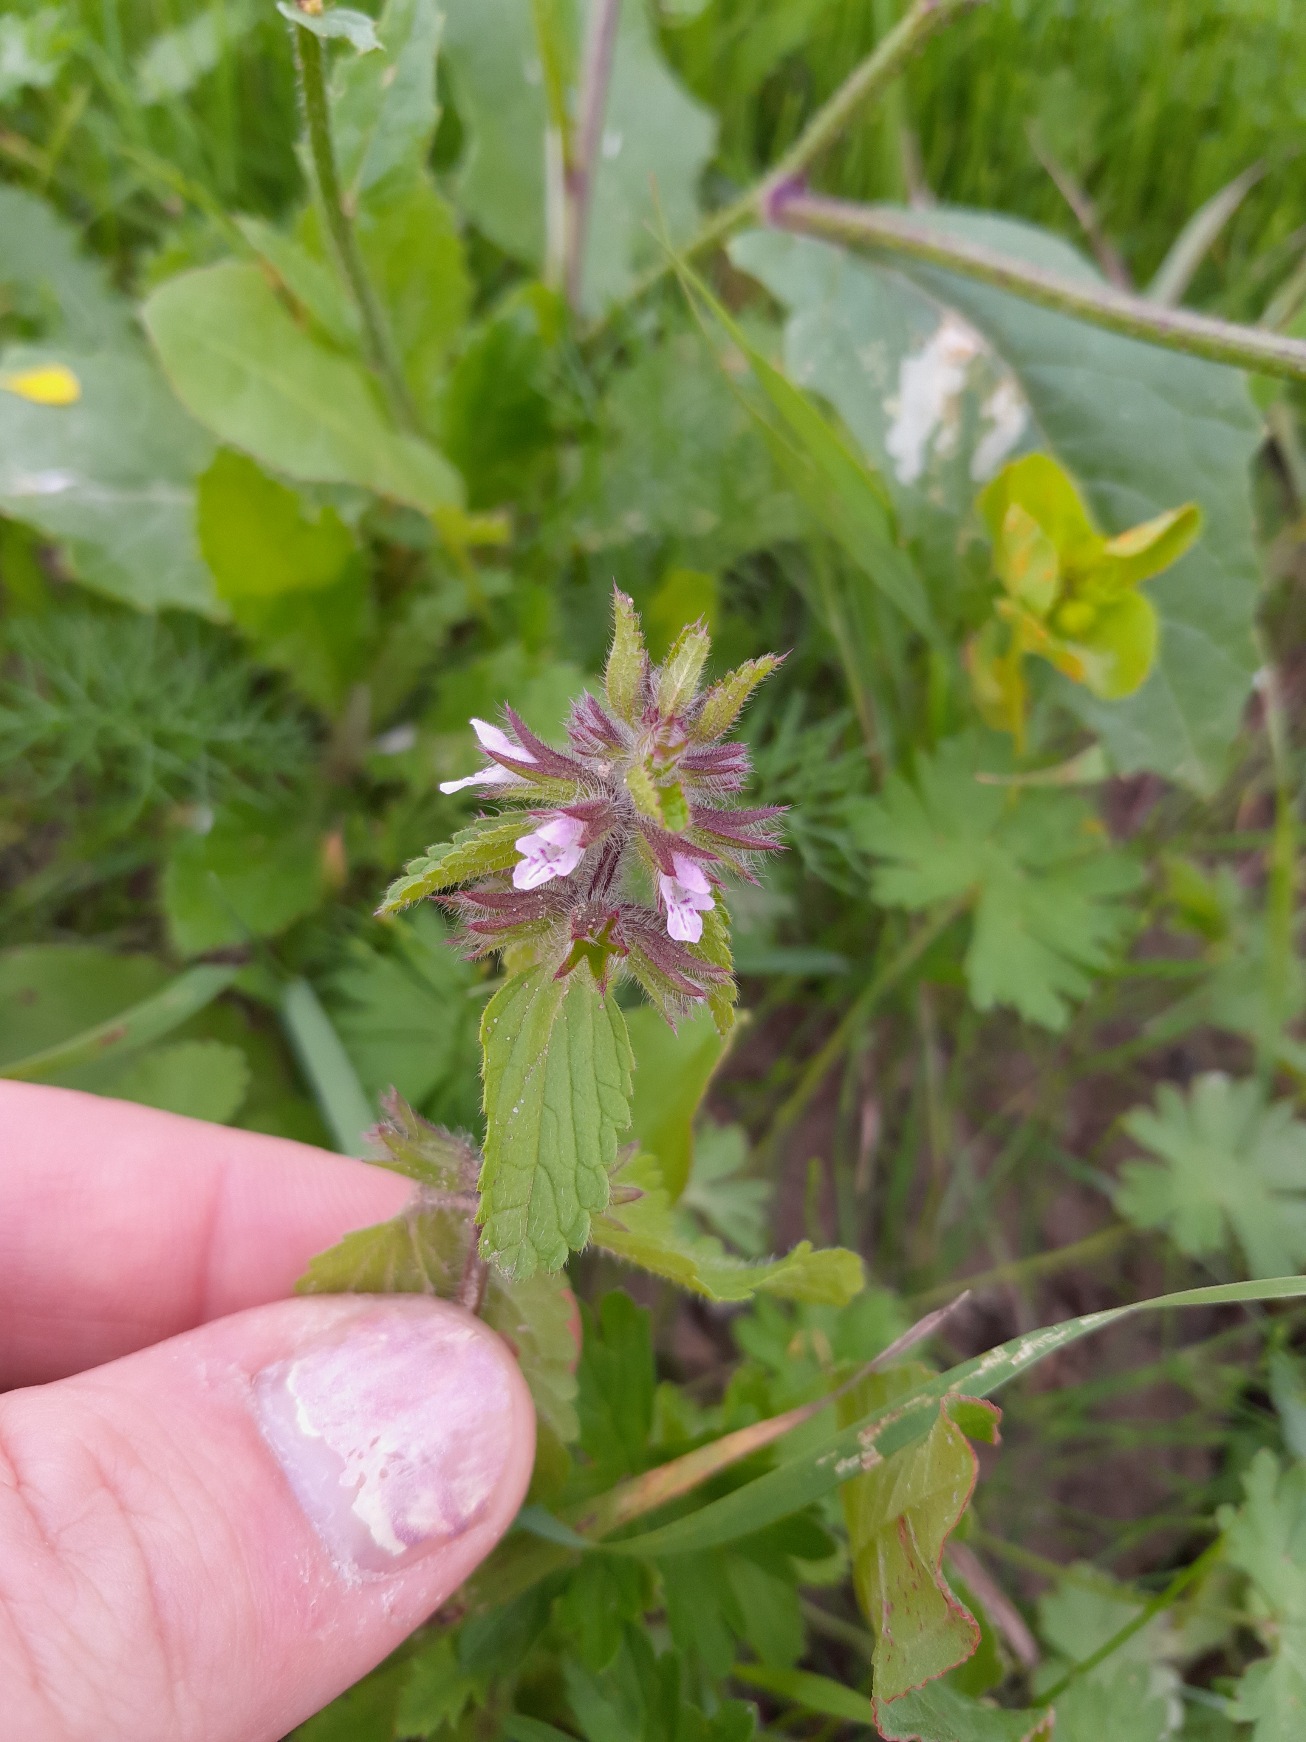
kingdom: Plantae
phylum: Tracheophyta
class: Magnoliopsida
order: Lamiales
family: Lamiaceae
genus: Stachys
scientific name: Stachys arvensis
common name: Ager-galtetand
